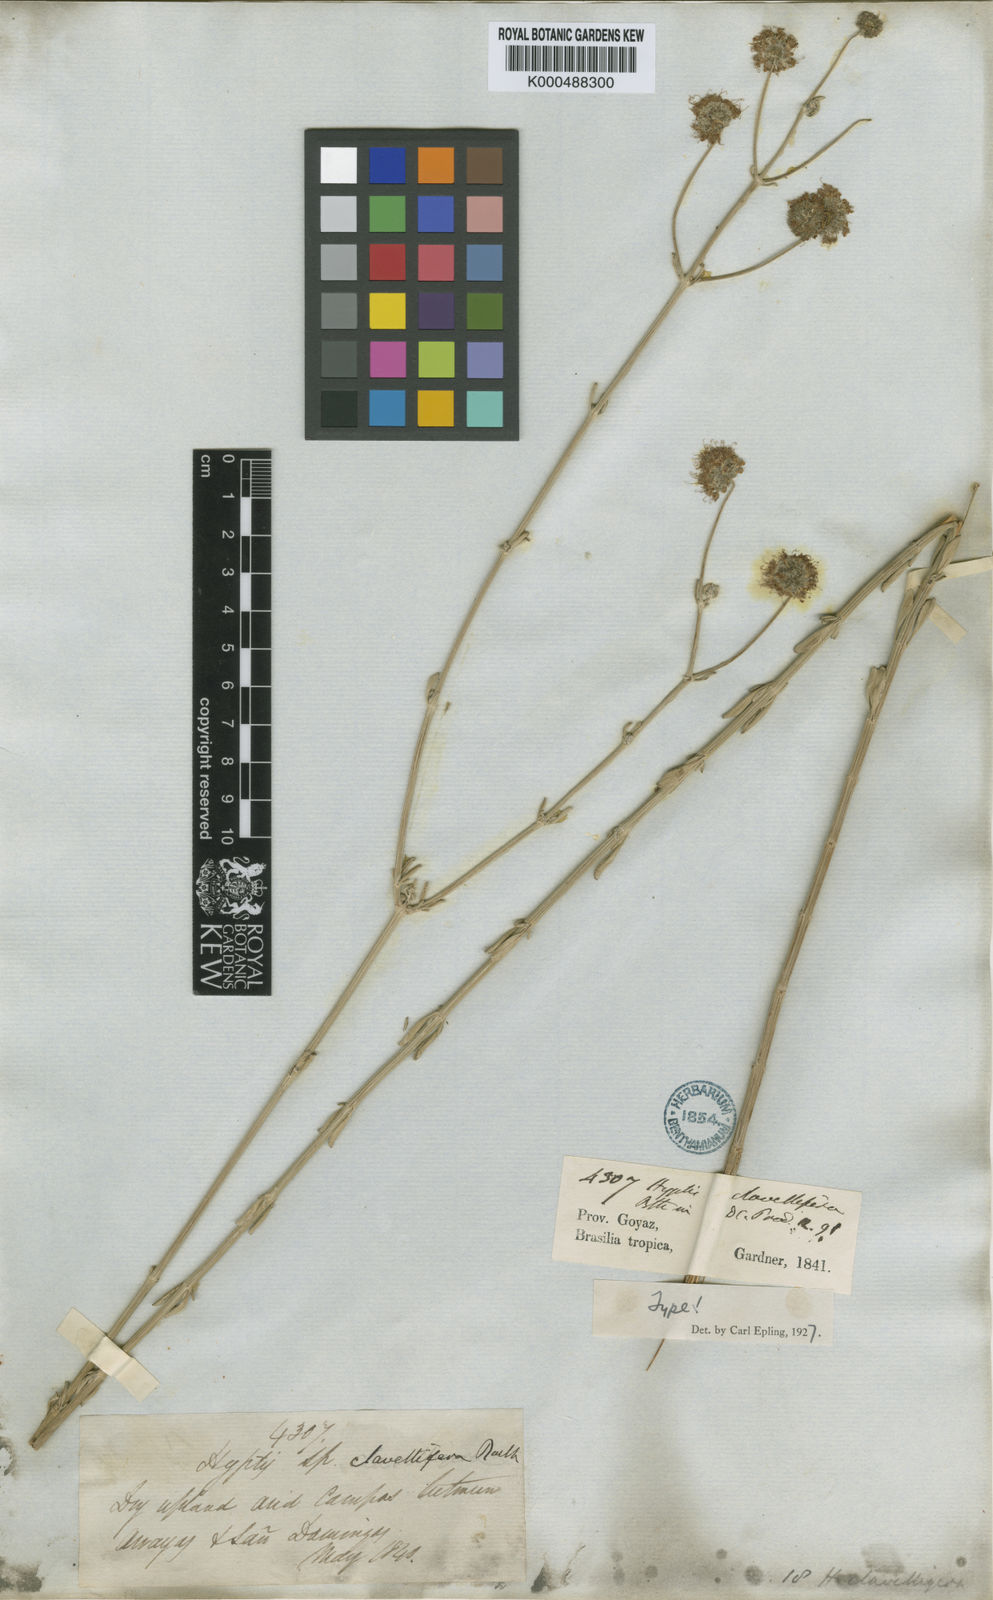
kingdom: Plantae
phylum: Tracheophyta
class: Magnoliopsida
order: Lamiales
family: Lamiaceae
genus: Cyanocephalus
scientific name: Cyanocephalus cuneatus
